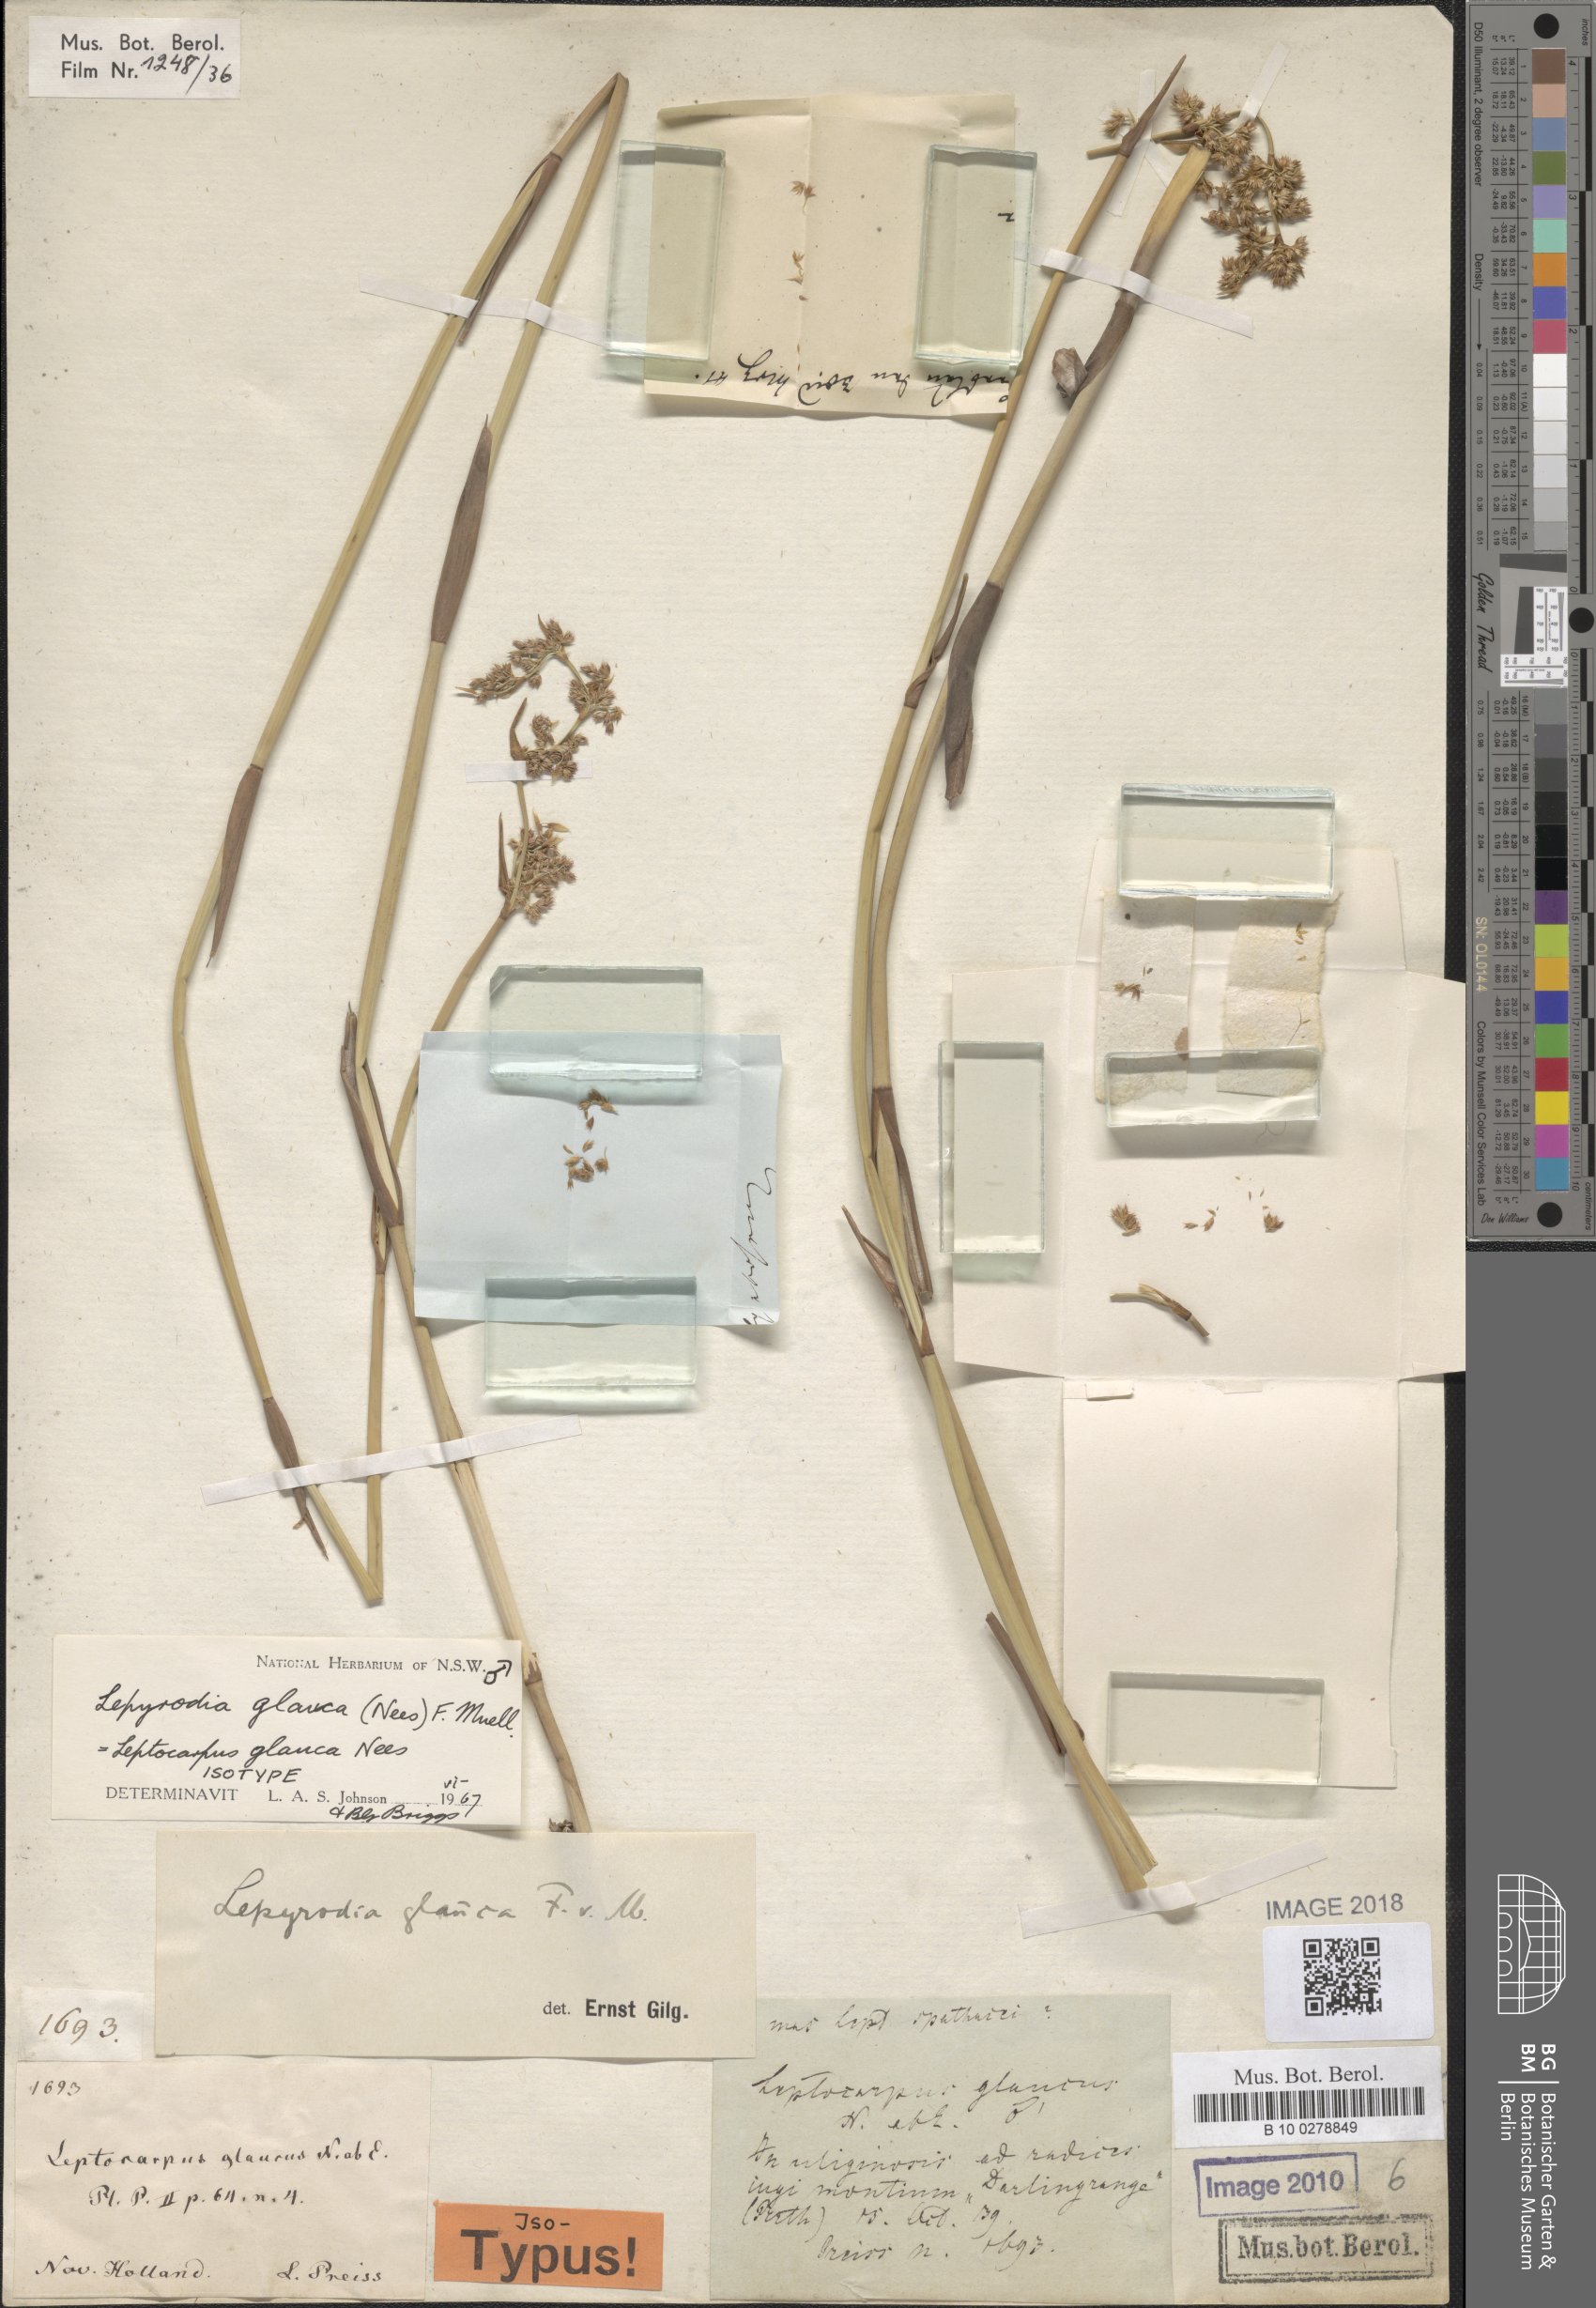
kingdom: Plantae
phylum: Tracheophyta
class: Liliopsida
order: Poales
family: Restionaceae
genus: Lepyrodia
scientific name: Lepyrodia glauca
